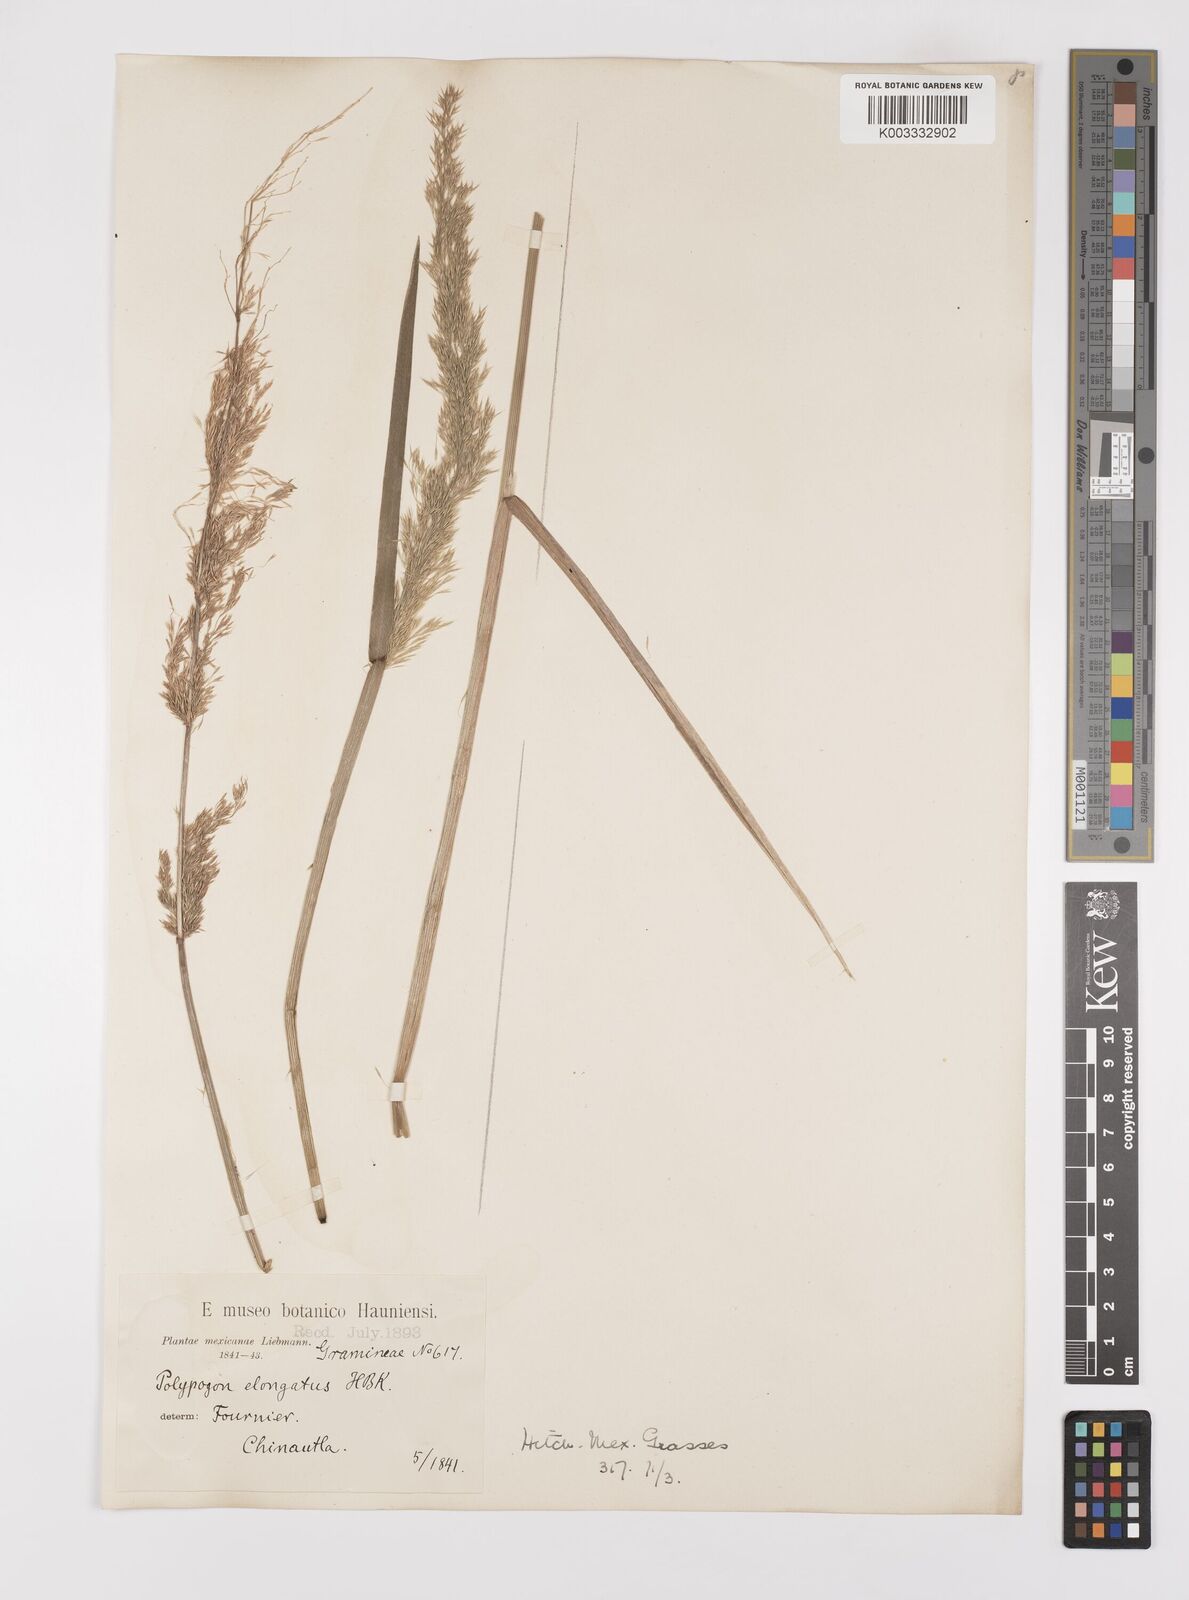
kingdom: Plantae
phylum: Tracheophyta
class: Liliopsida
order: Poales
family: Poaceae
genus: Polypogon
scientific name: Polypogon elongatus
